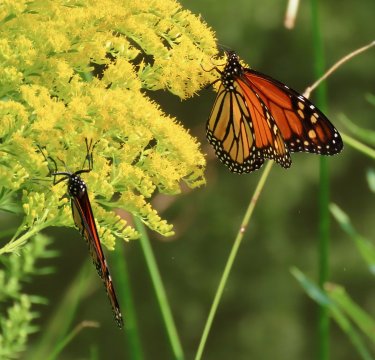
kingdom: Animalia
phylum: Arthropoda
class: Insecta
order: Lepidoptera
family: Nymphalidae
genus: Danaus
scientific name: Danaus plexippus
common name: Monarch
